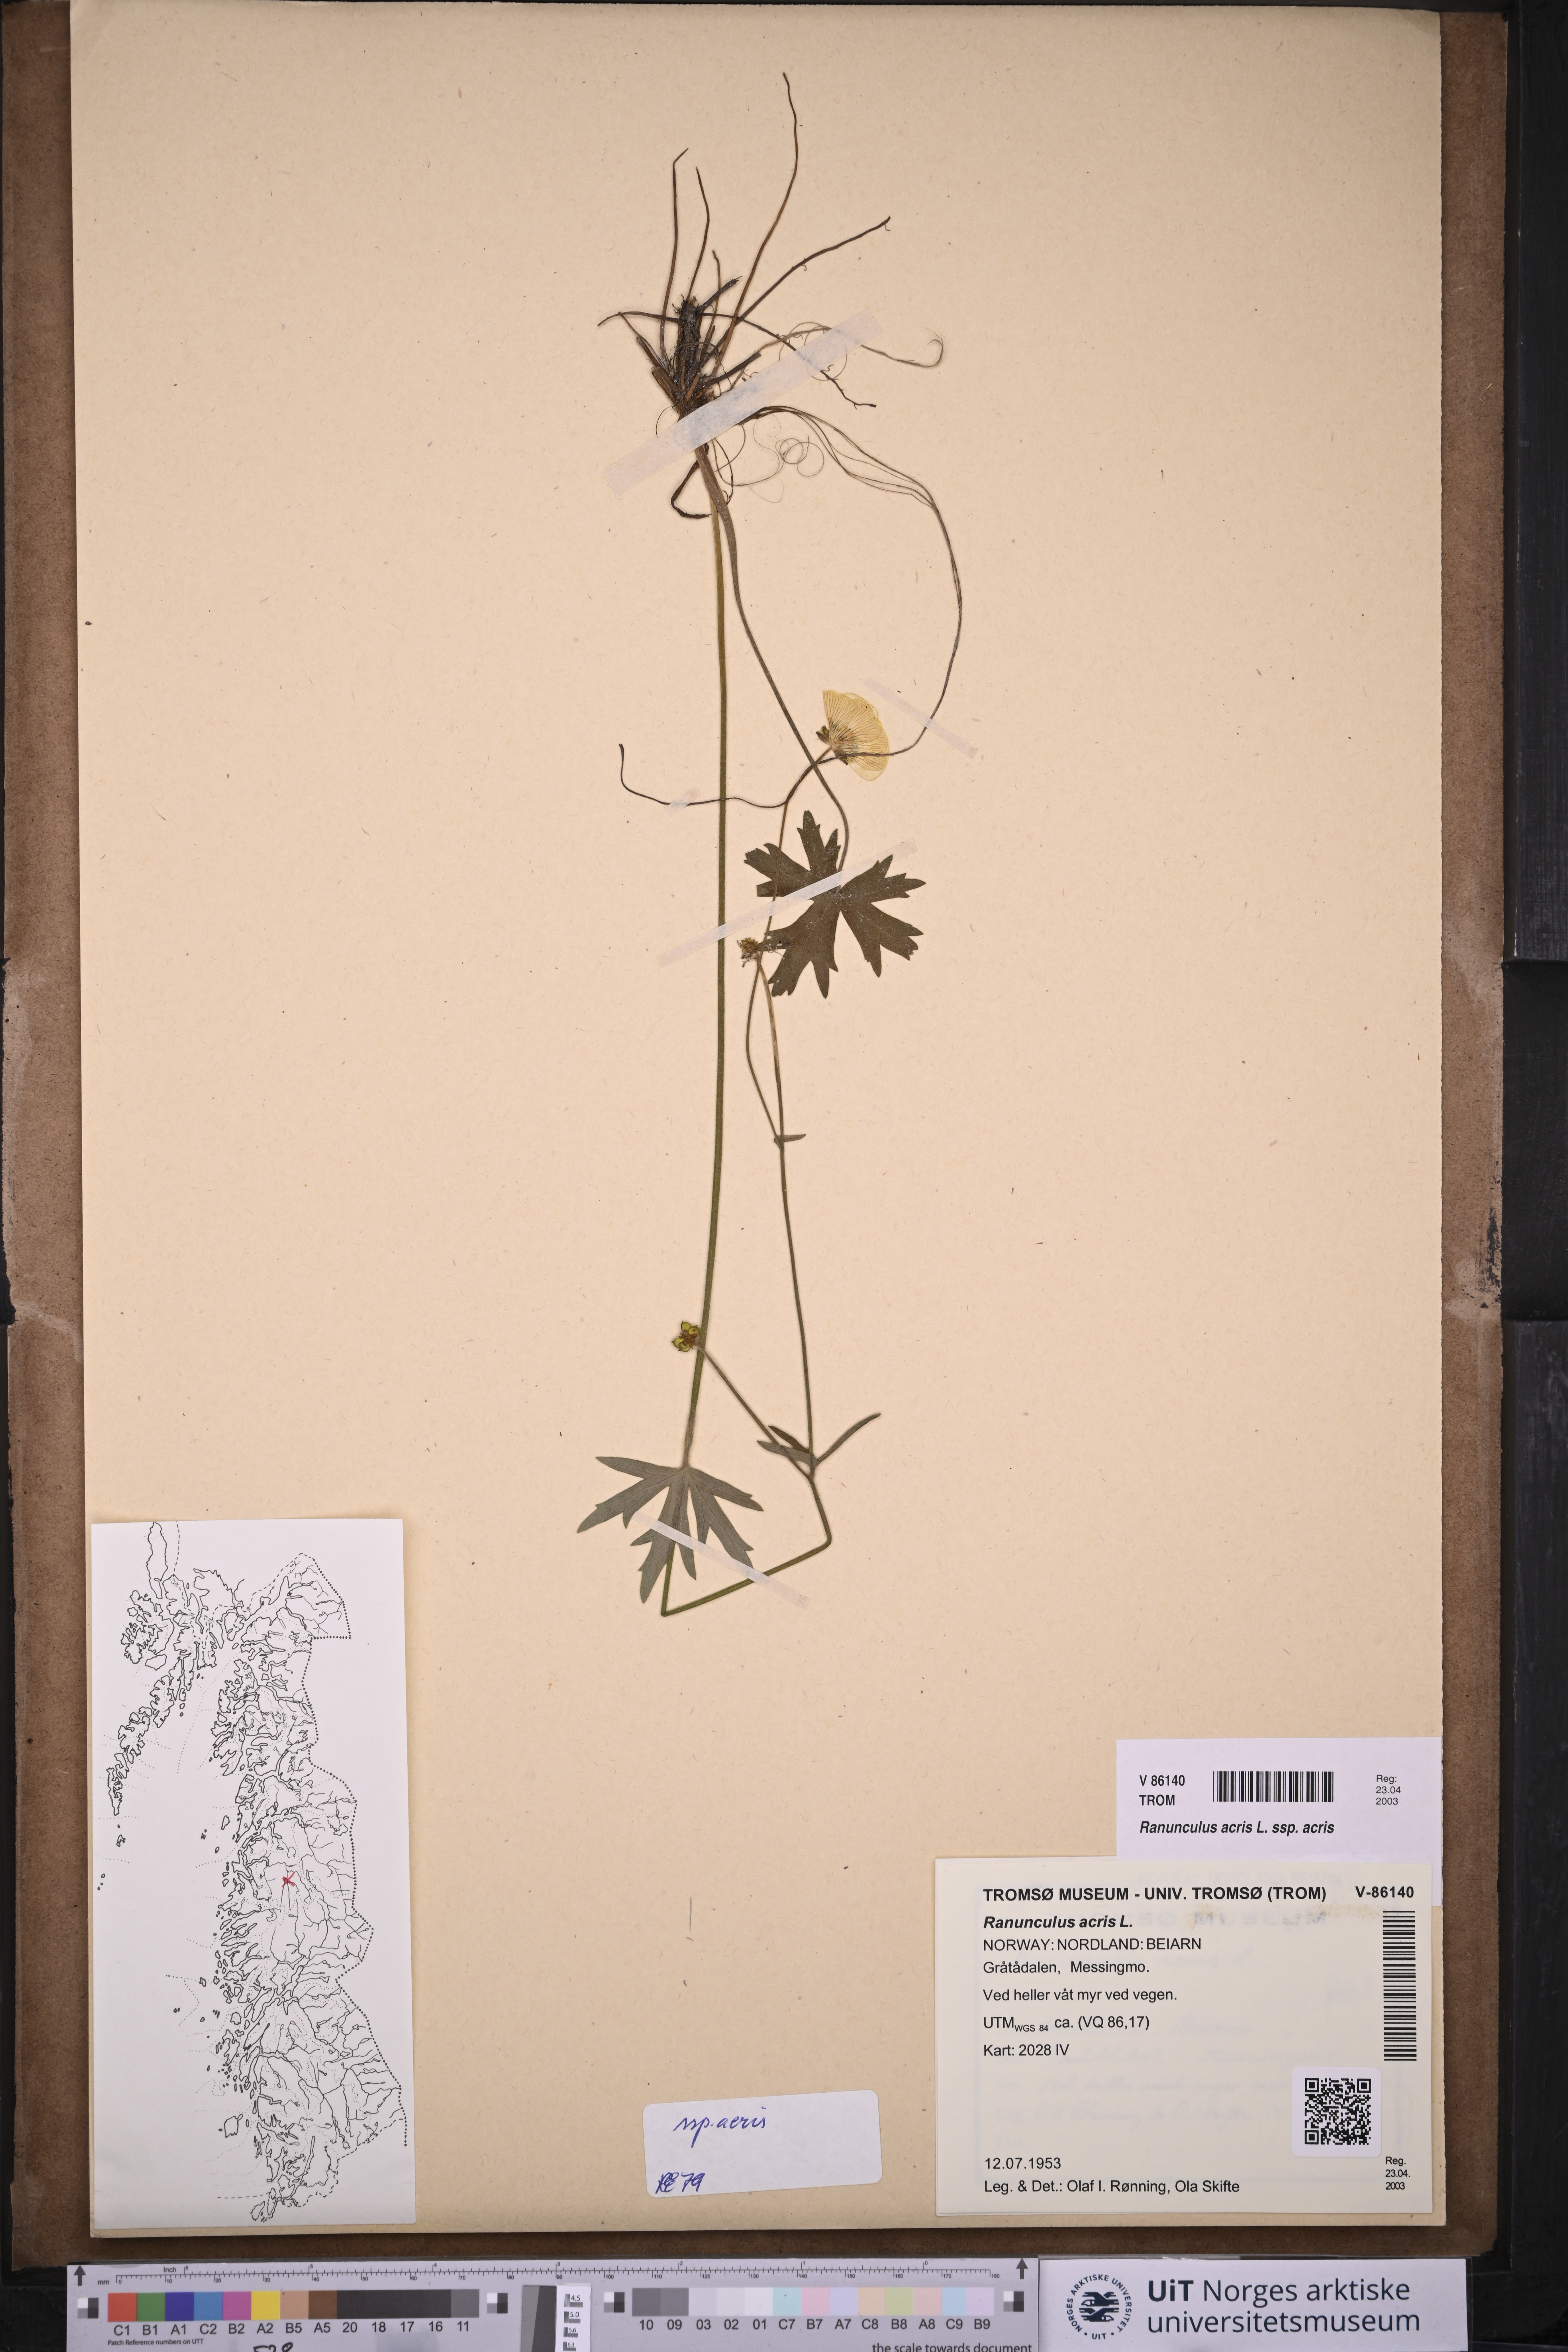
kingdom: Plantae
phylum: Tracheophyta
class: Magnoliopsida
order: Ranunculales
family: Ranunculaceae
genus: Ranunculus
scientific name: Ranunculus acris
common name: Meadow buttercup
